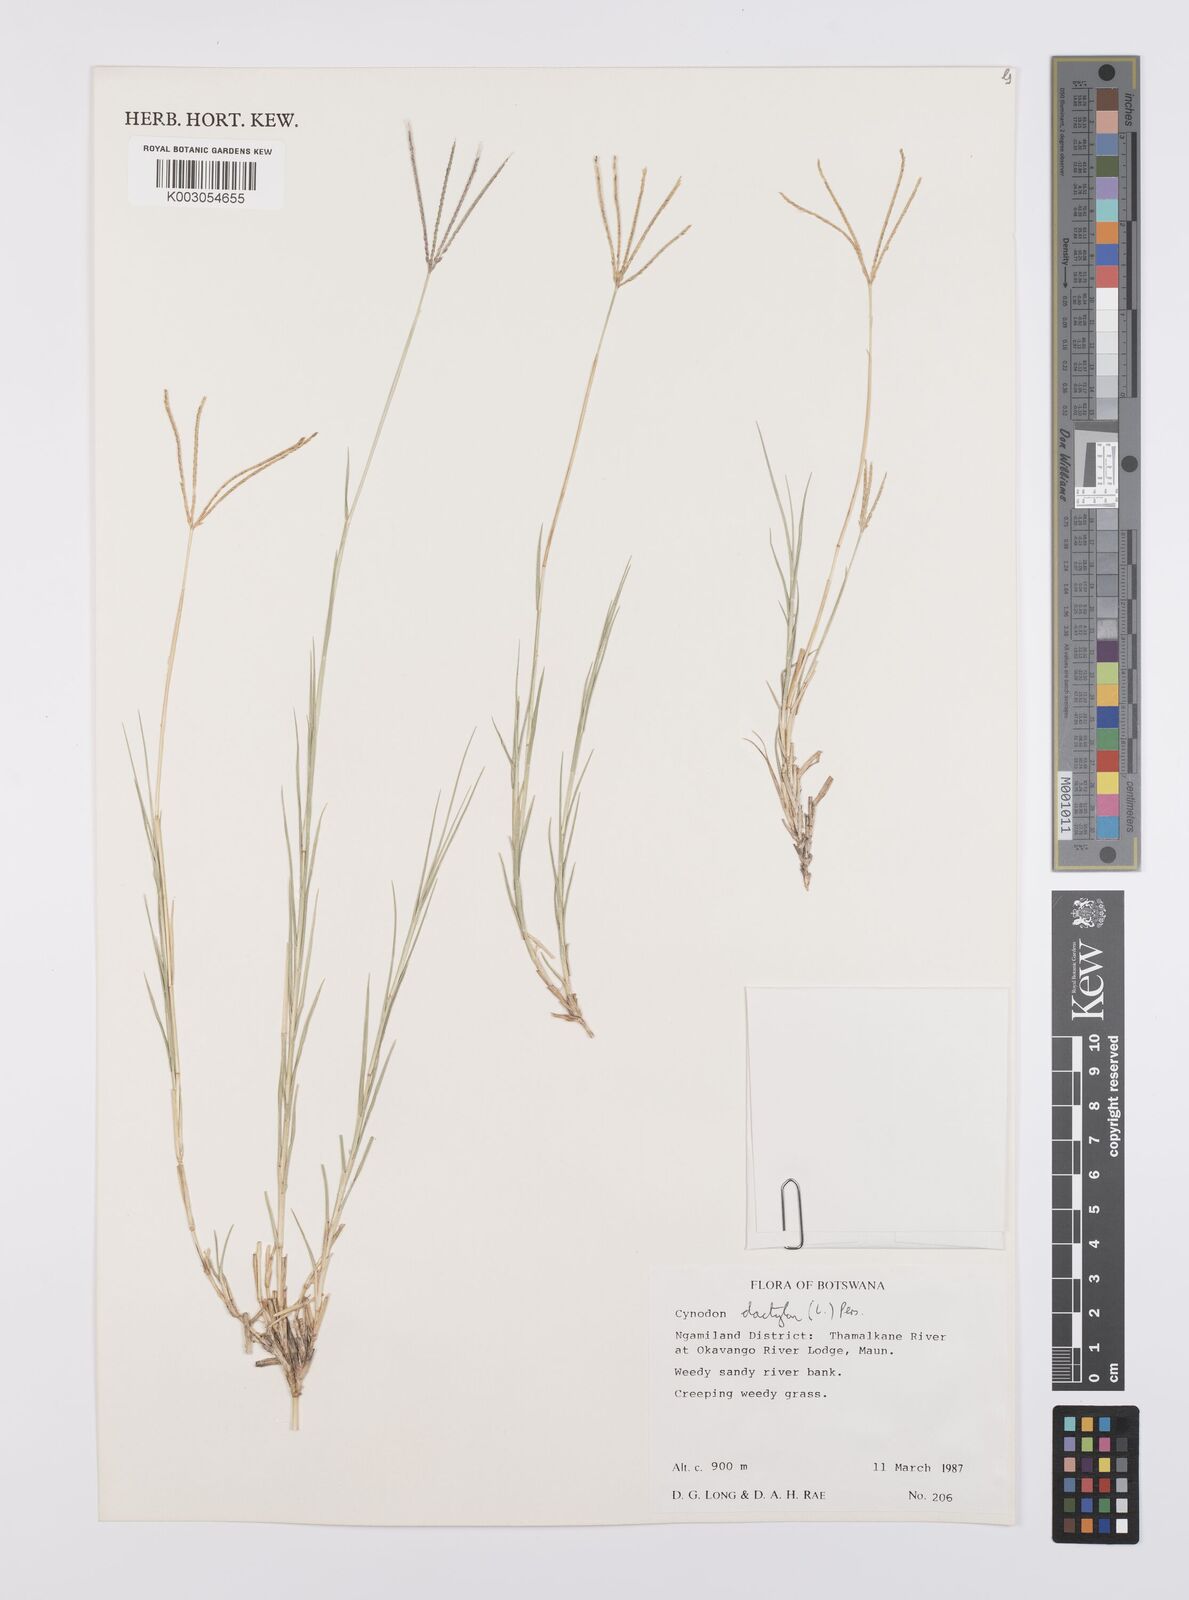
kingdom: Plantae
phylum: Tracheophyta
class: Liliopsida
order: Poales
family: Poaceae
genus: Cynodon
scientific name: Cynodon dactylon
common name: Bermuda grass
